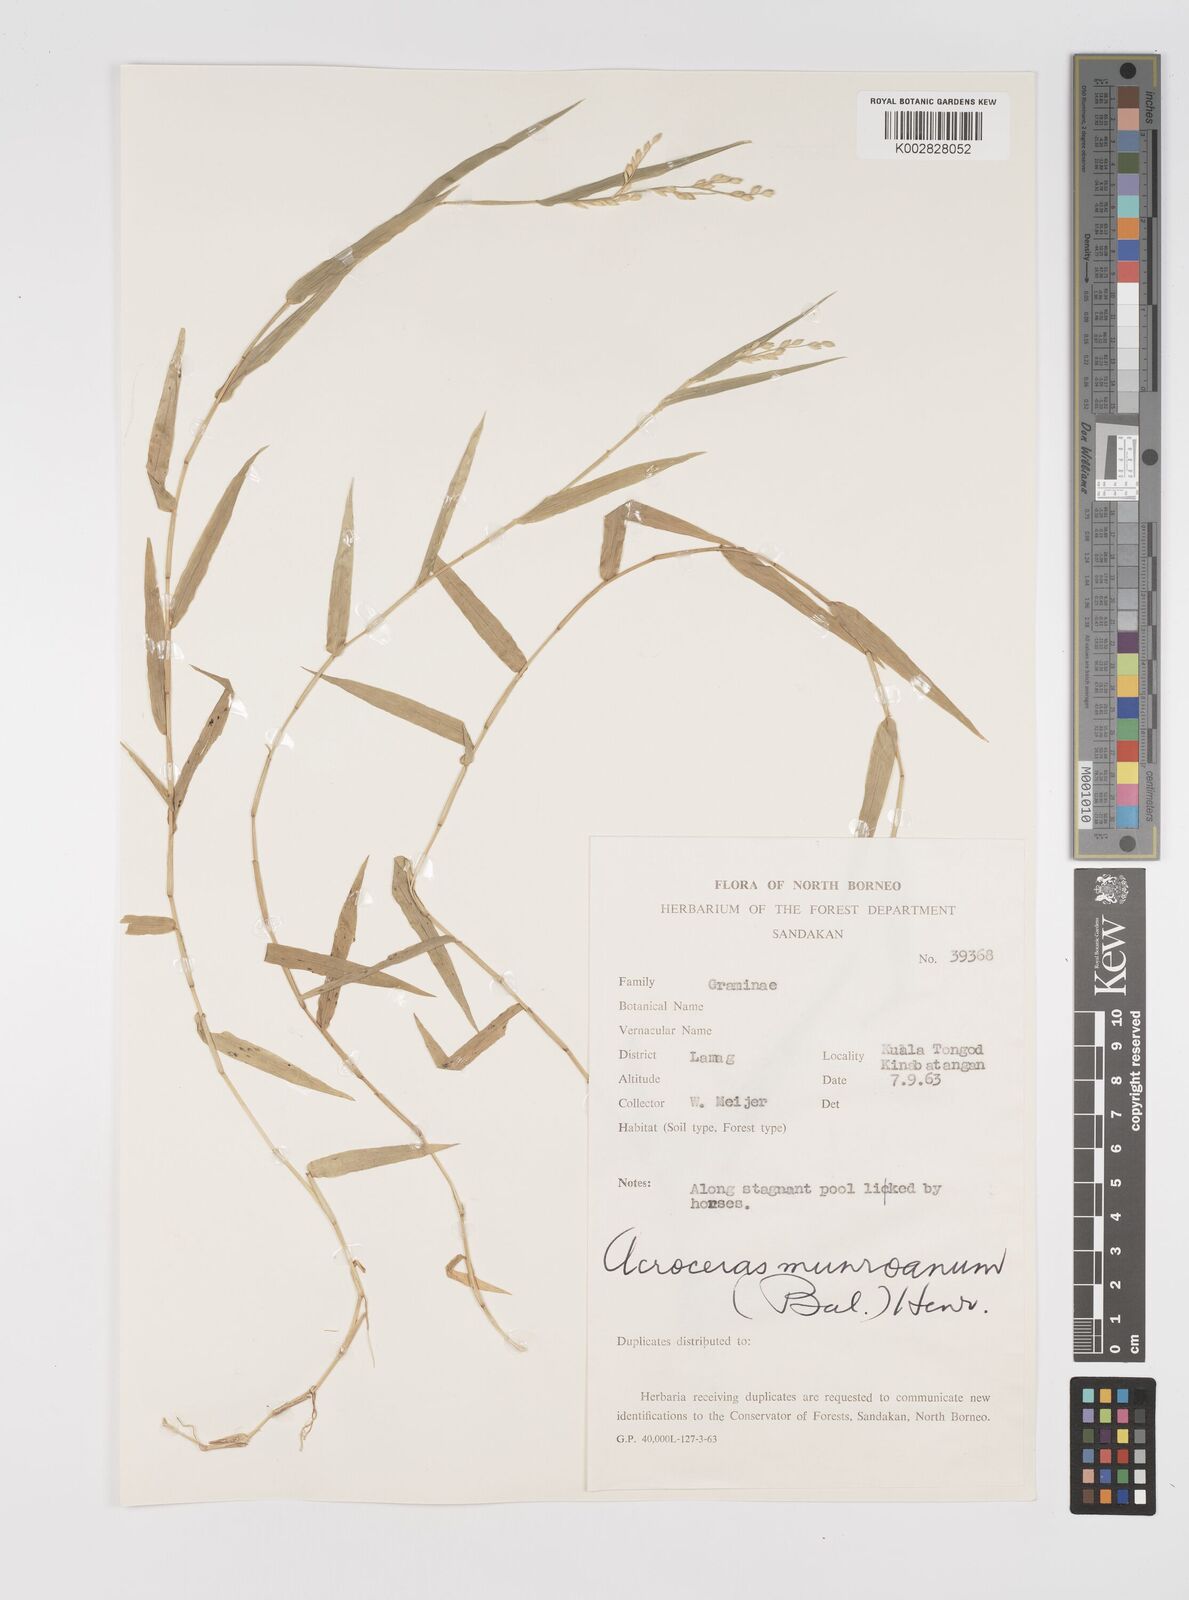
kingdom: Plantae
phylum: Tracheophyta
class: Liliopsida
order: Poales
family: Poaceae
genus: Acroceras
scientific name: Acroceras munroanum
